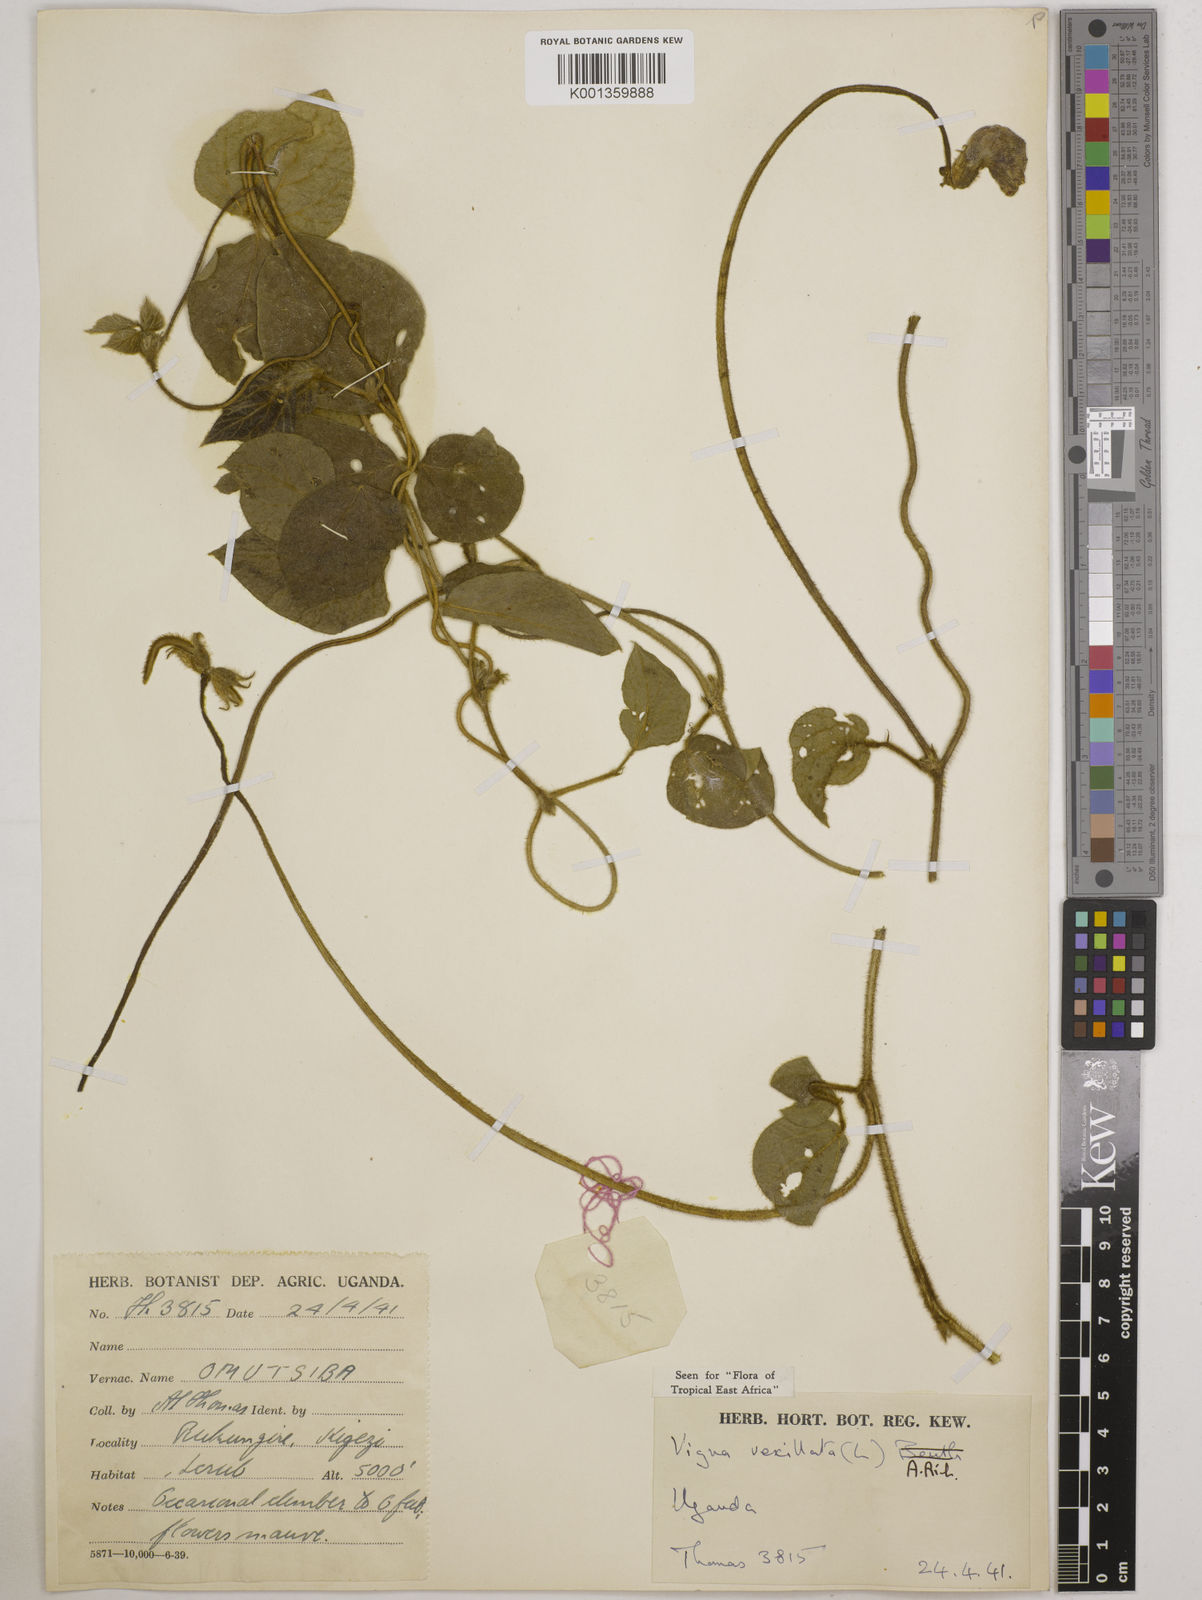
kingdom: Plantae
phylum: Tracheophyta
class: Magnoliopsida
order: Fabales
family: Fabaceae
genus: Vigna
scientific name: Vigna vexillata
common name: Zombi pea
